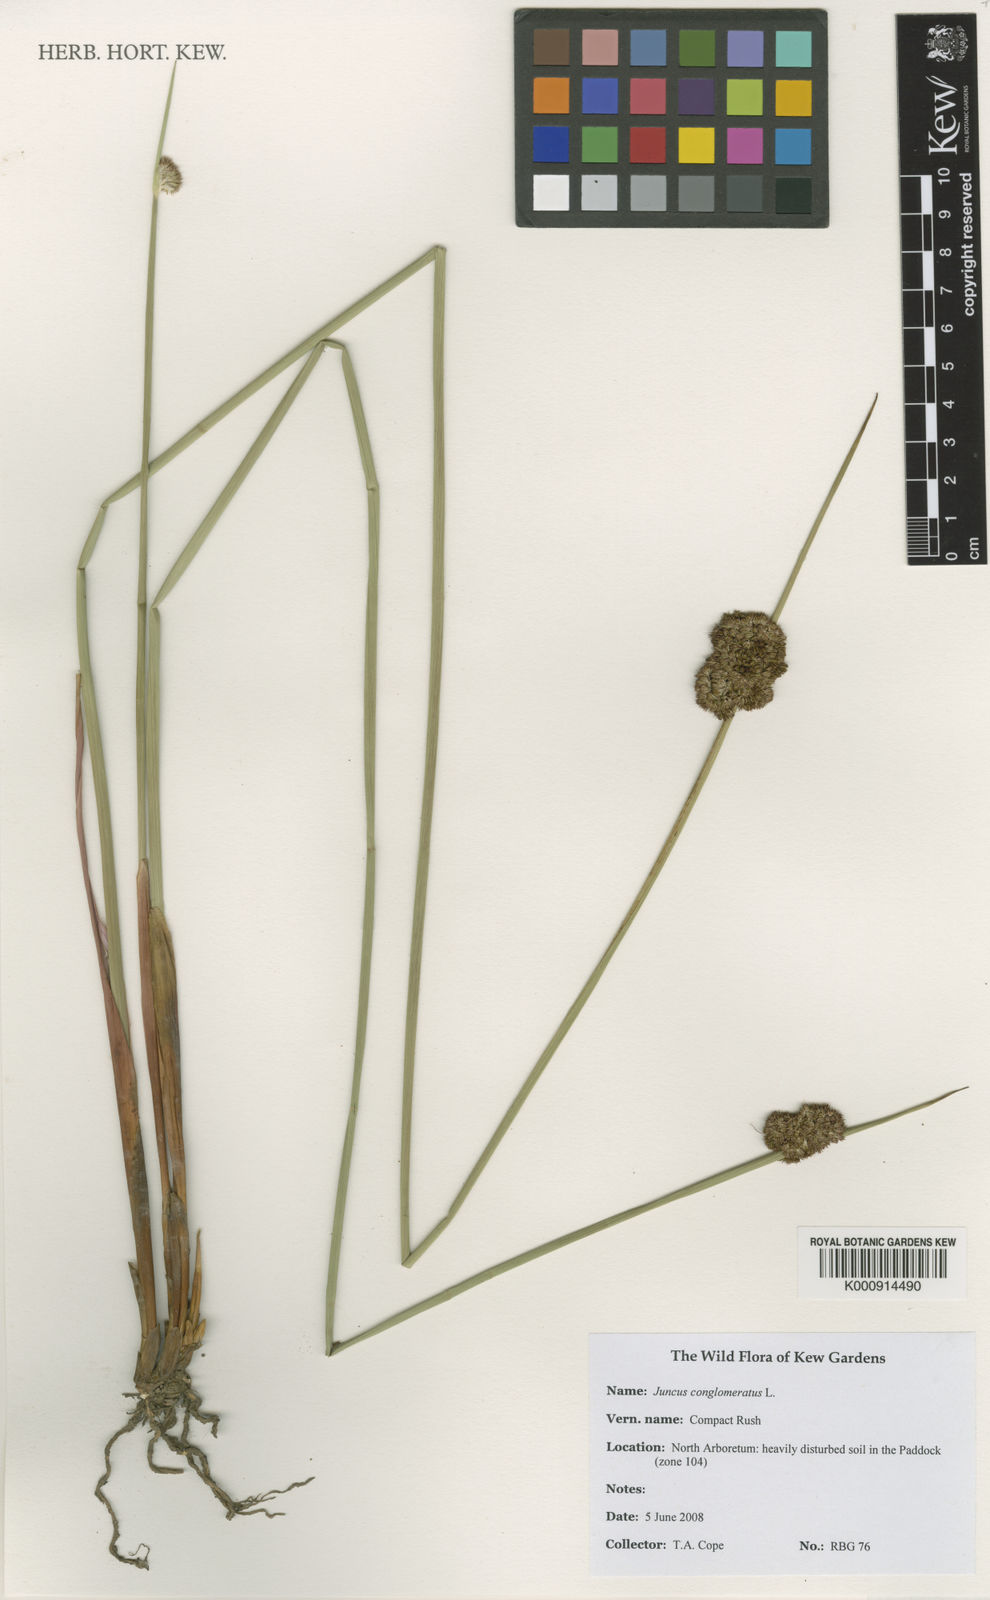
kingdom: Plantae
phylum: Tracheophyta
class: Liliopsida
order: Poales
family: Juncaceae
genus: Juncus
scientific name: Juncus conglomeratus
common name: Compact rush
